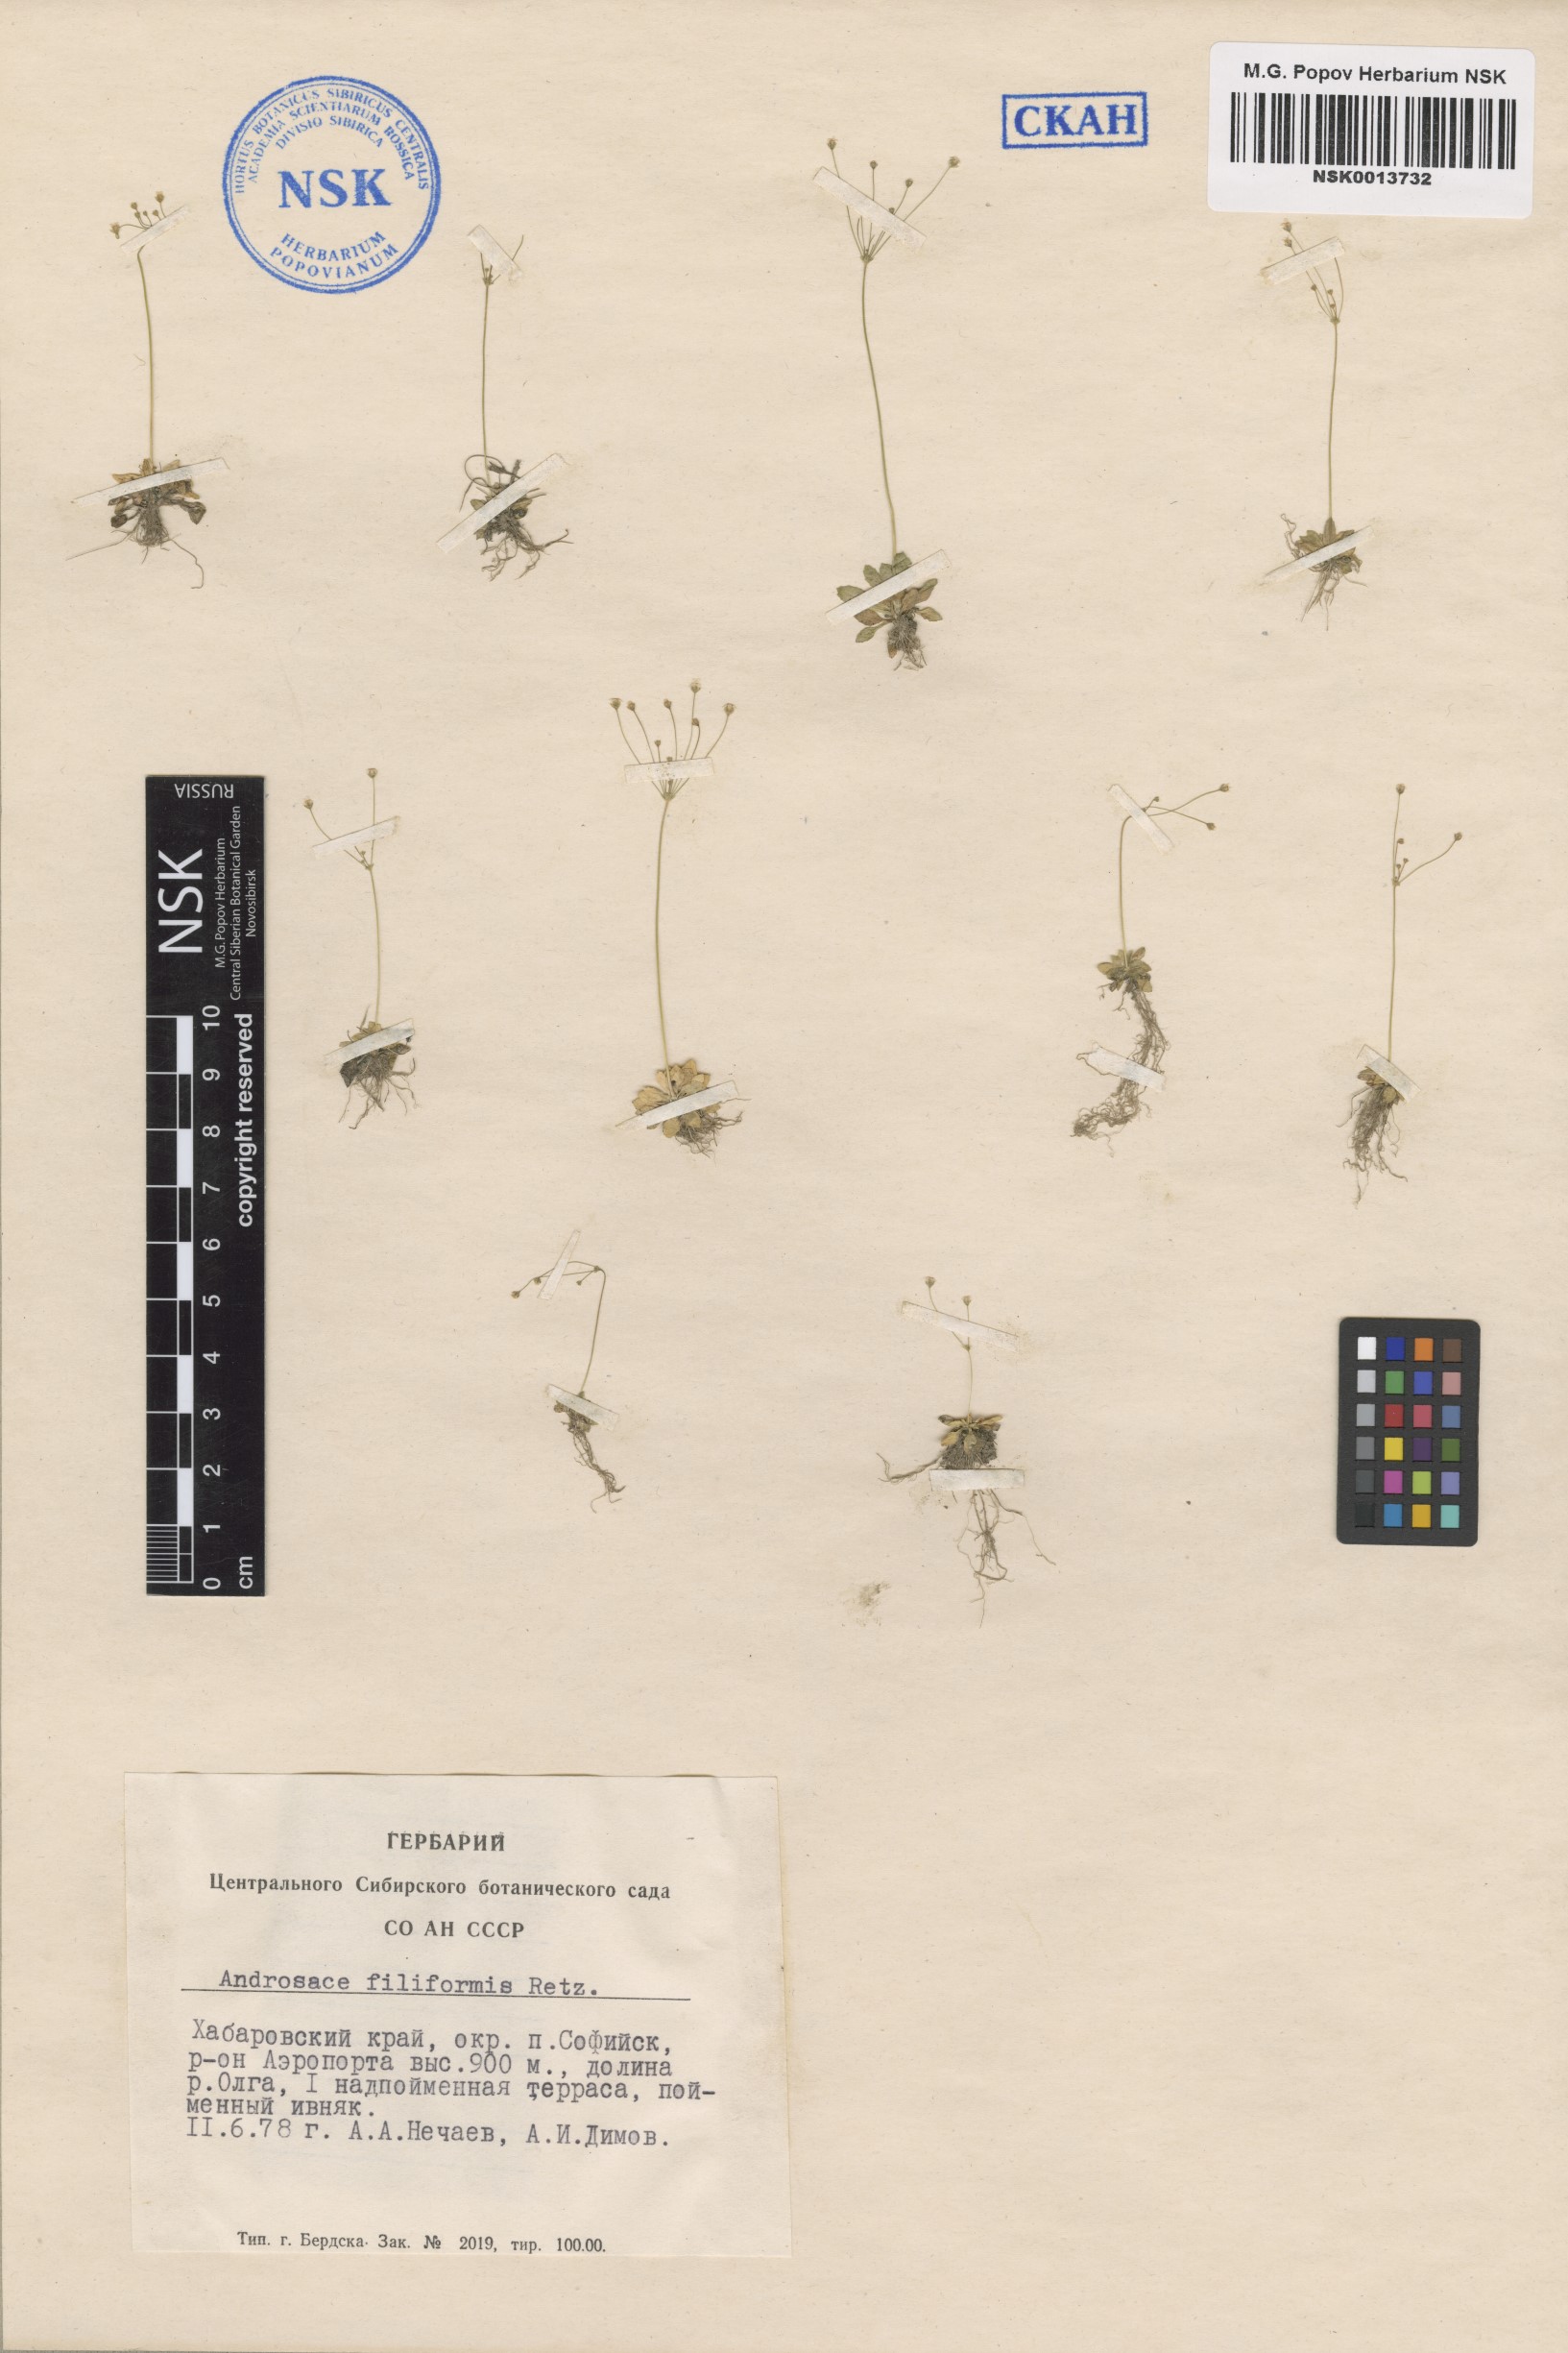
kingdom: Plantae
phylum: Tracheophyta
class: Magnoliopsida
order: Ericales
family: Primulaceae
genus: Androsace
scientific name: Androsace filiformis
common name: Filiform rock jasmine
